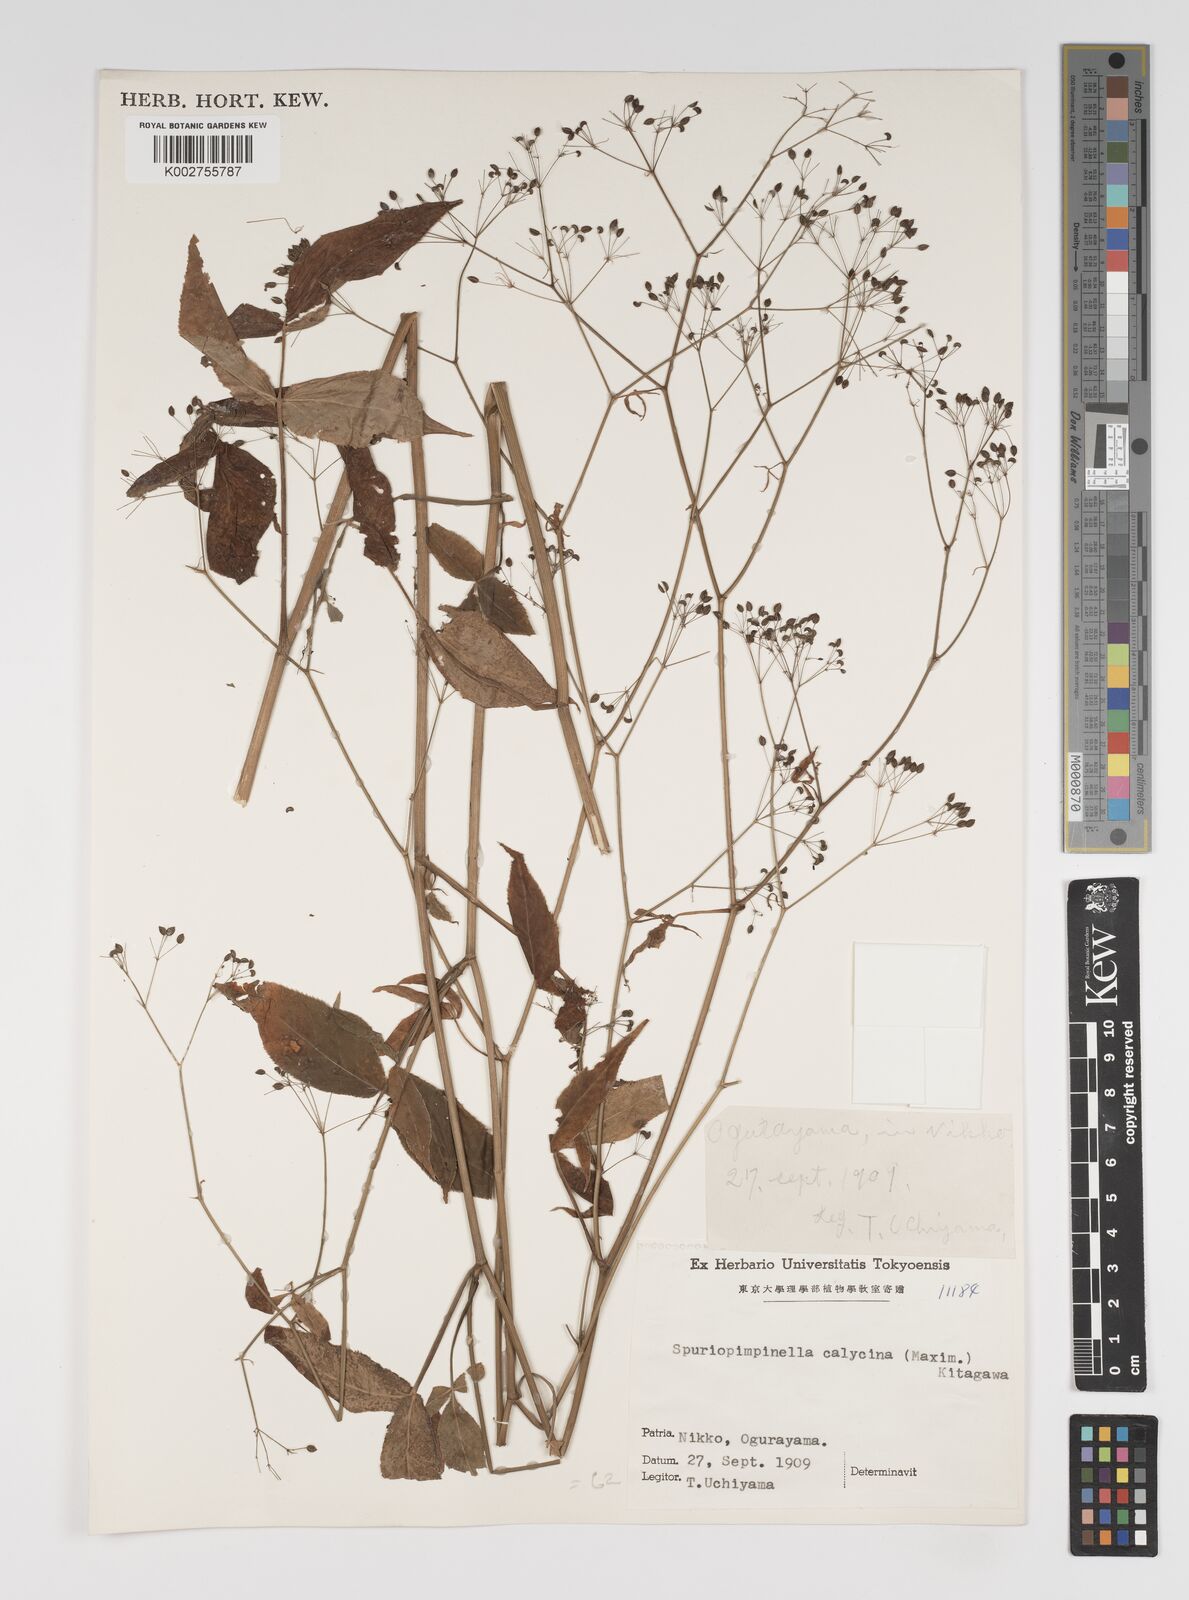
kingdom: Plantae
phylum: Tracheophyta
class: Magnoliopsida
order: Apiales
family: Apiaceae
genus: Spuriopimpinella
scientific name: Spuriopimpinella calycina
